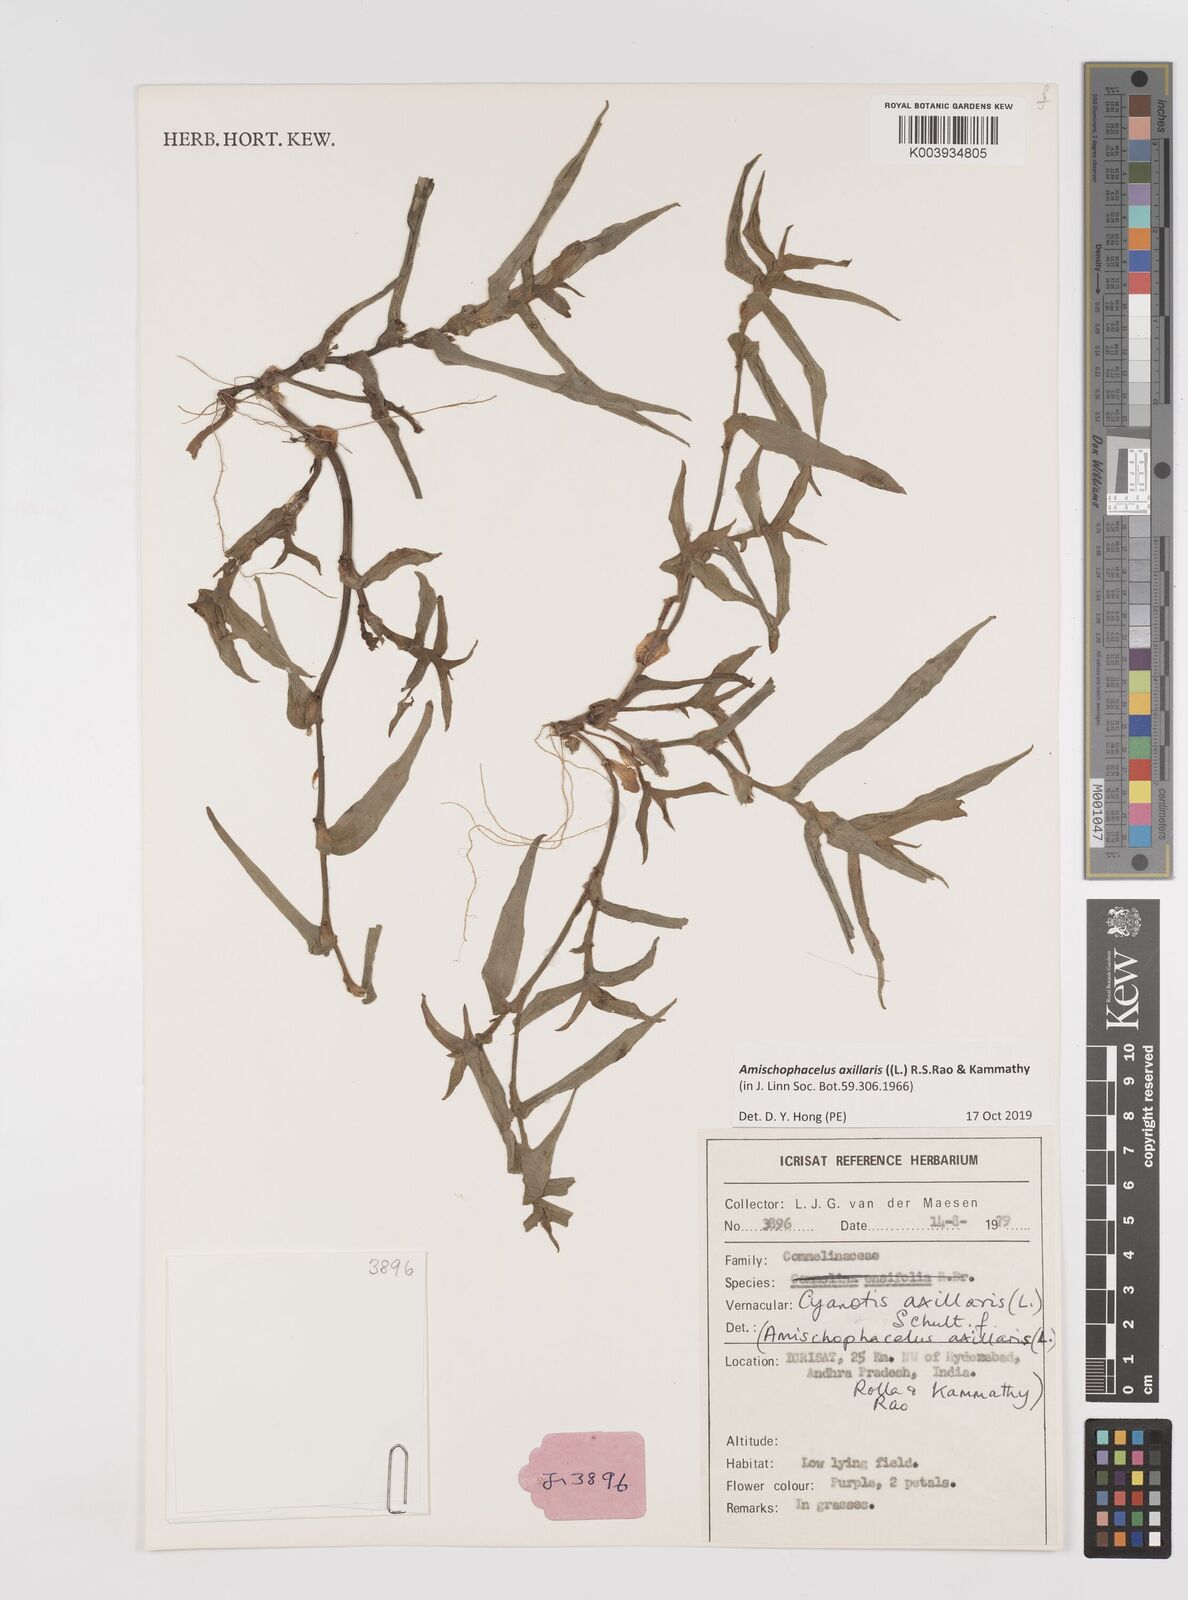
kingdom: Plantae
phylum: Tracheophyta
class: Liliopsida
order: Commelinales
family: Commelinaceae
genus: Cyanotis
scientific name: Cyanotis axillaris
